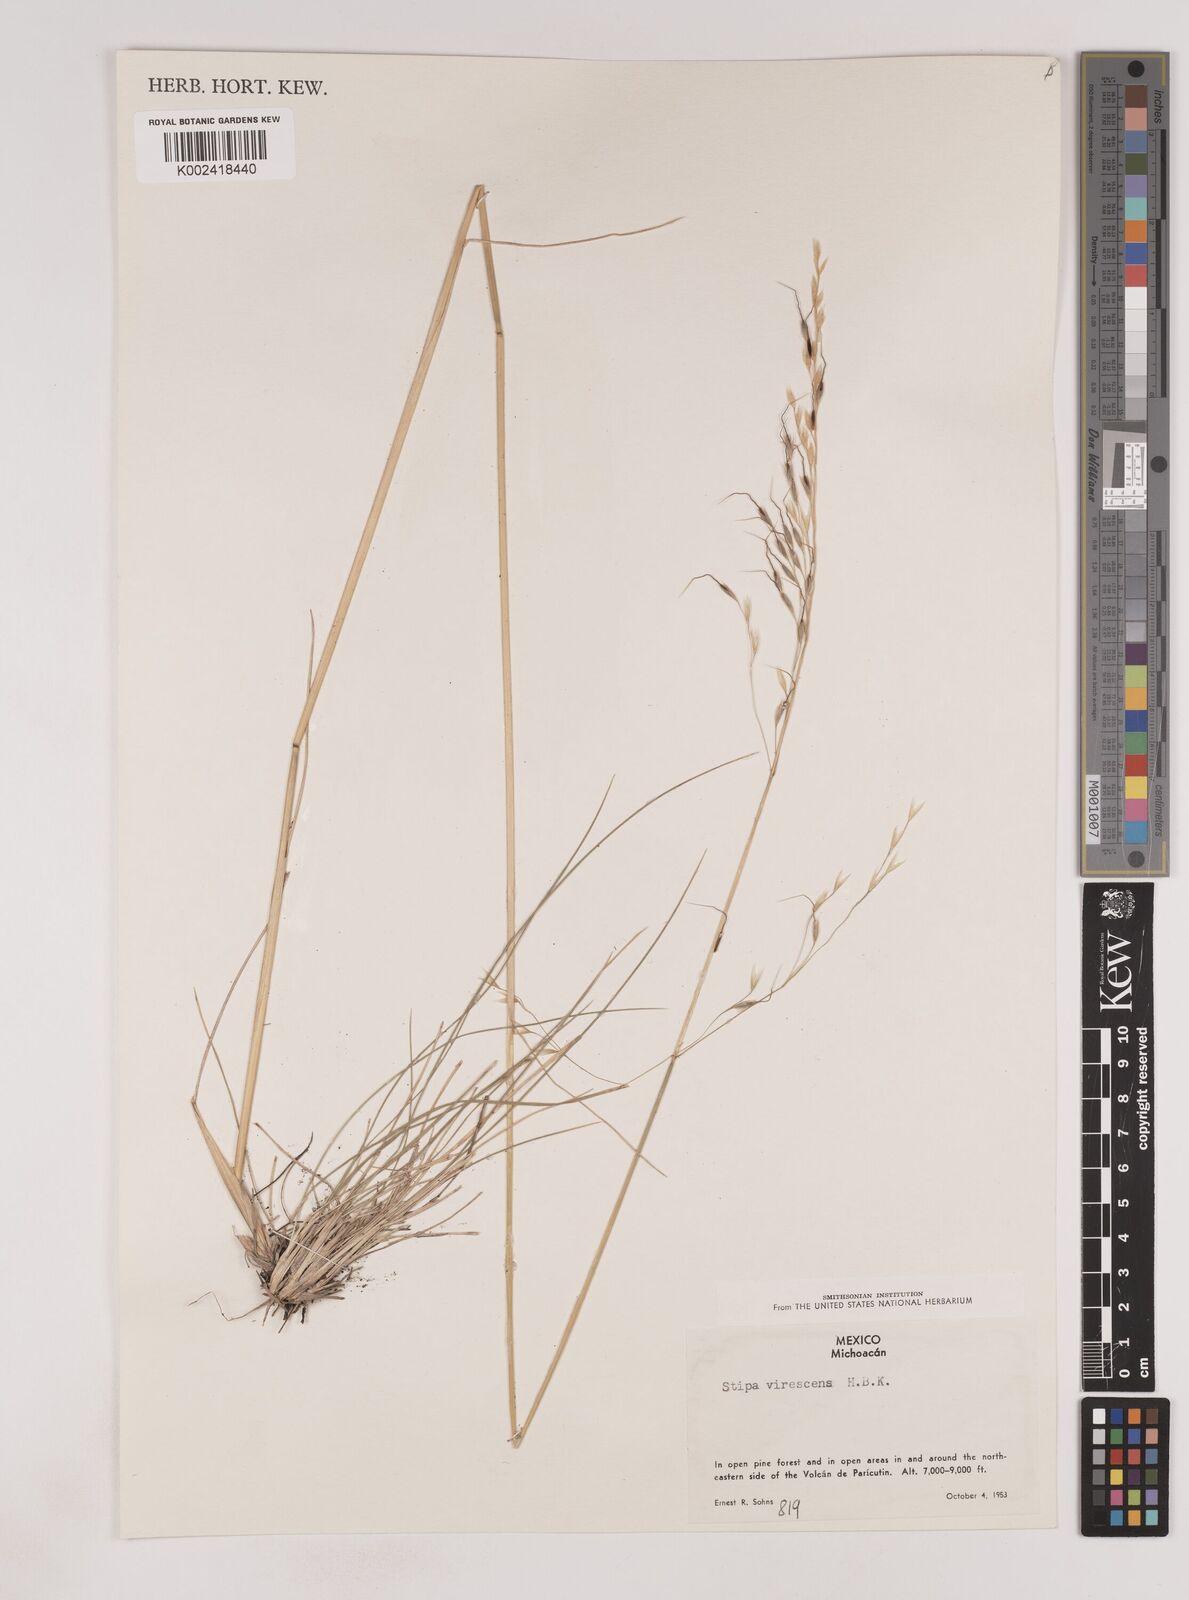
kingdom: Plantae
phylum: Tracheophyta
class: Liliopsida
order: Poales
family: Poaceae
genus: Piptochaetium
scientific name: Piptochaetium virescens
